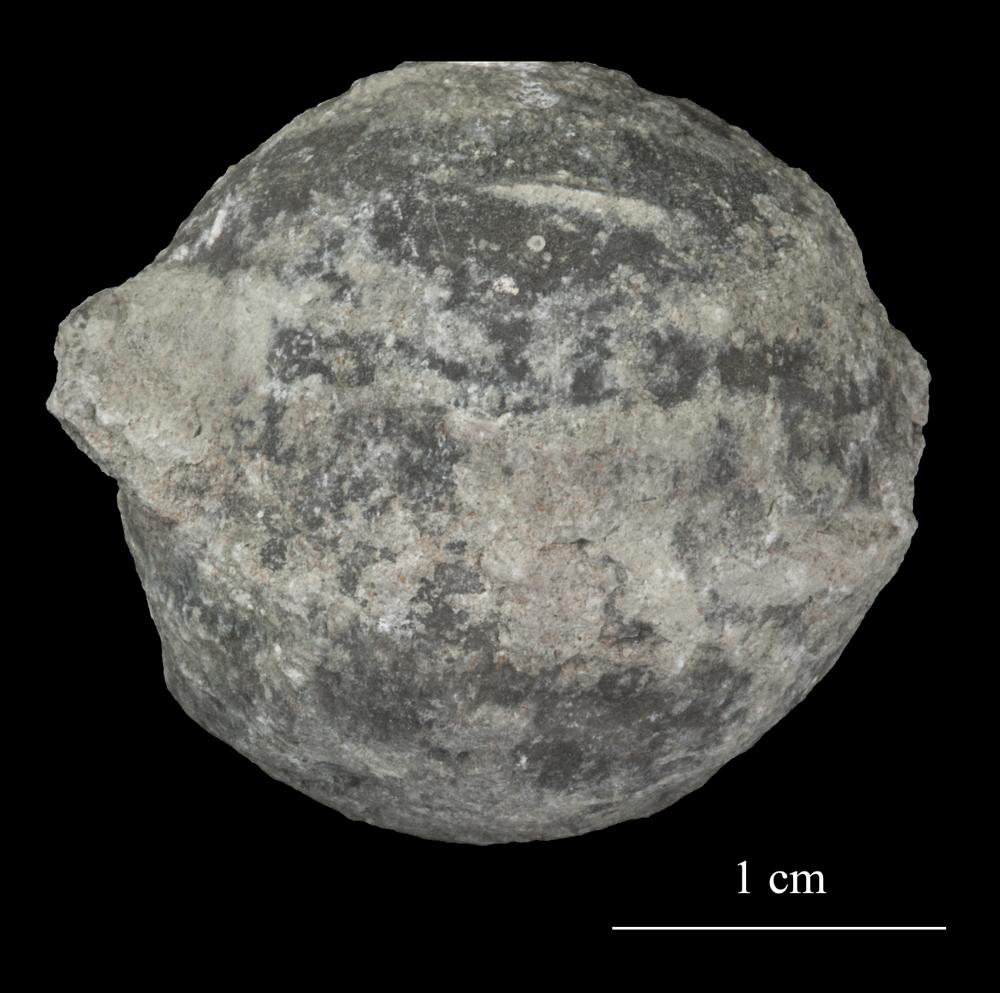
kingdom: Animalia
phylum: Echinodermata
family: Echinosphaeritidae
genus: Echinosphaerites
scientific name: Echinosphaerites Echinus aurantium
